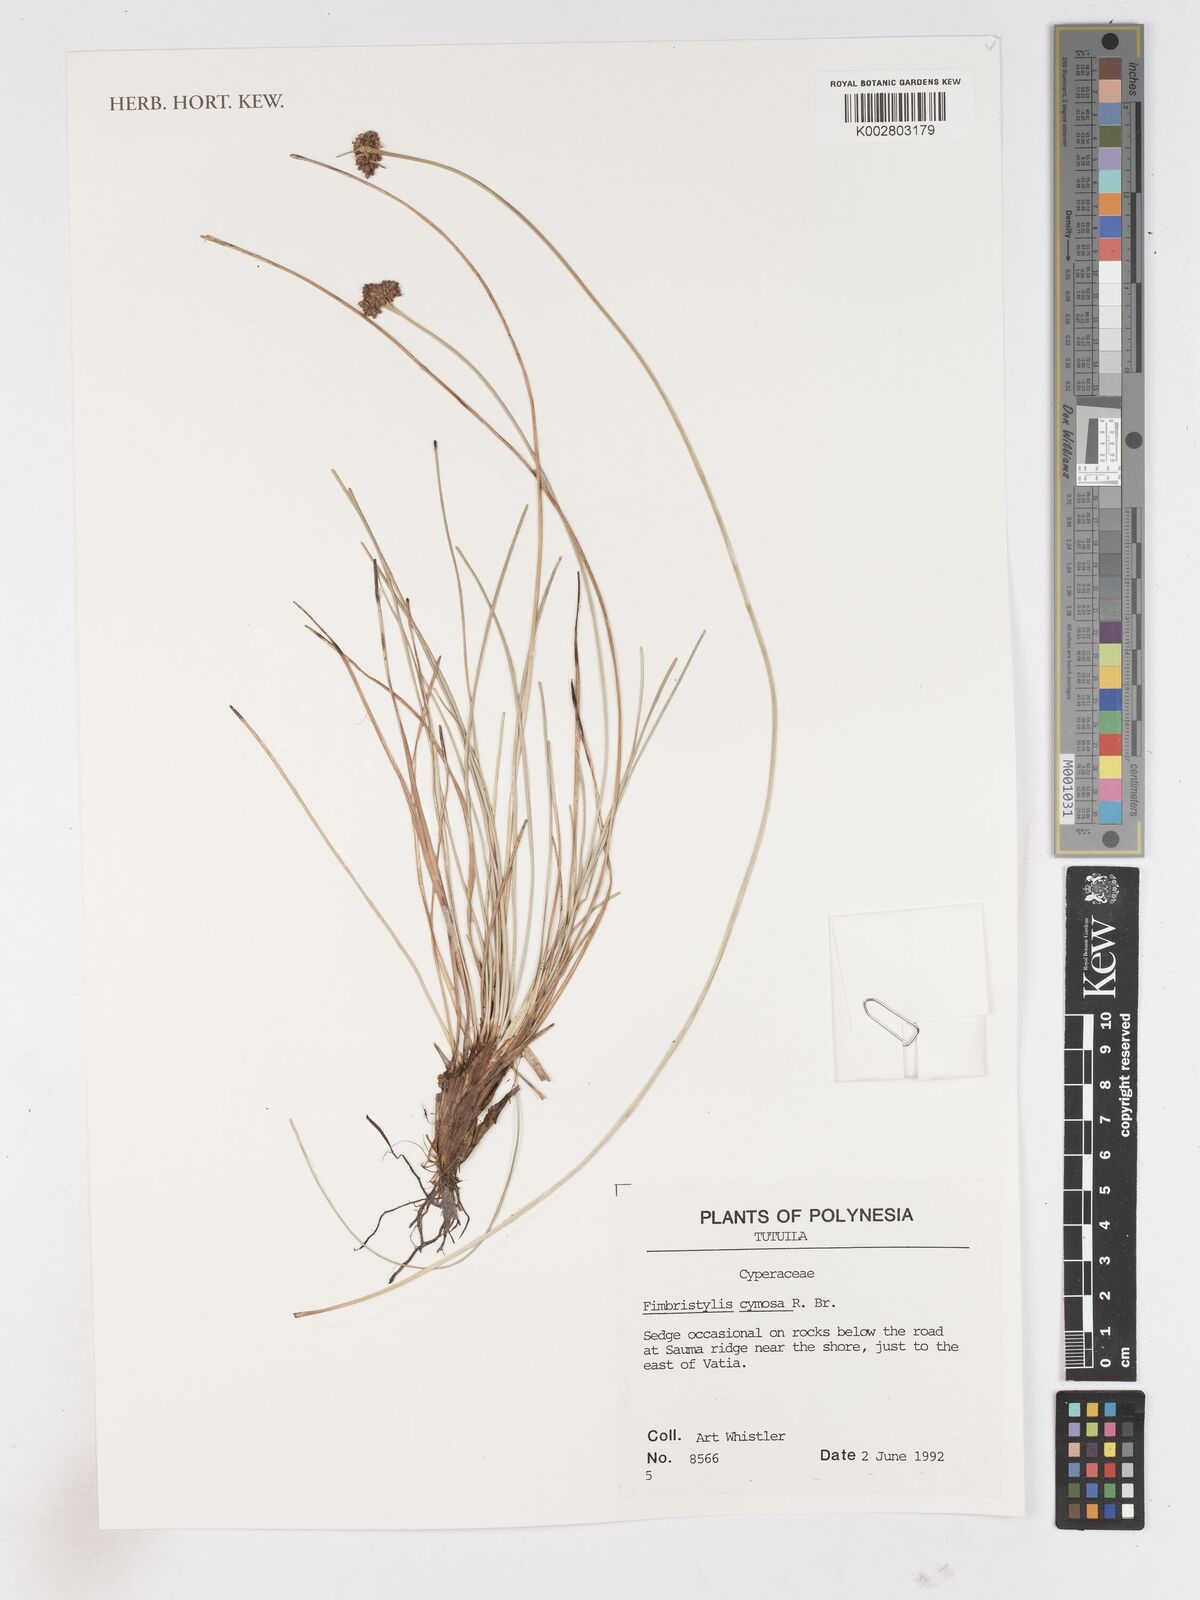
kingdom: Plantae
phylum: Tracheophyta
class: Liliopsida
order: Poales
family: Cyperaceae
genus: Fimbristylis
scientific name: Fimbristylis cymosa
